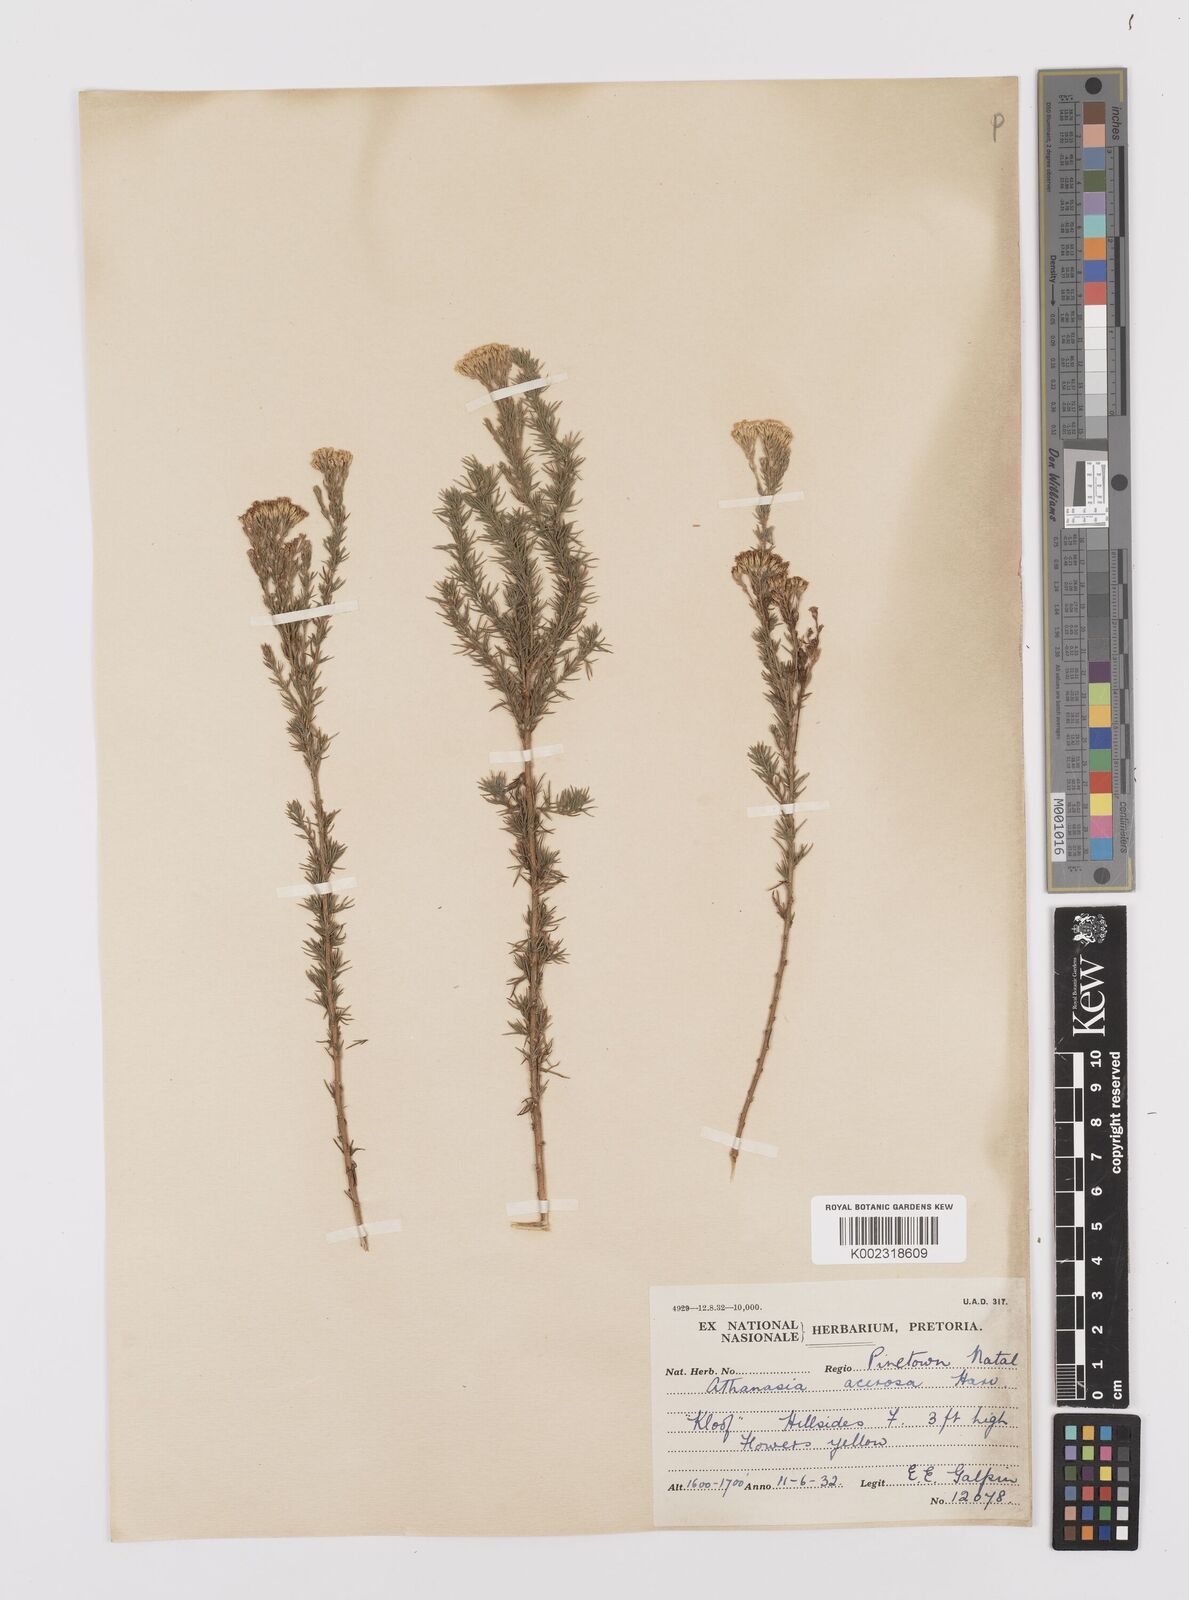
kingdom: Plantae
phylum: Tracheophyta
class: Magnoliopsida
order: Asterales
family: Asteraceae
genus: Phymaspermum
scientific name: Phymaspermum acerosum
